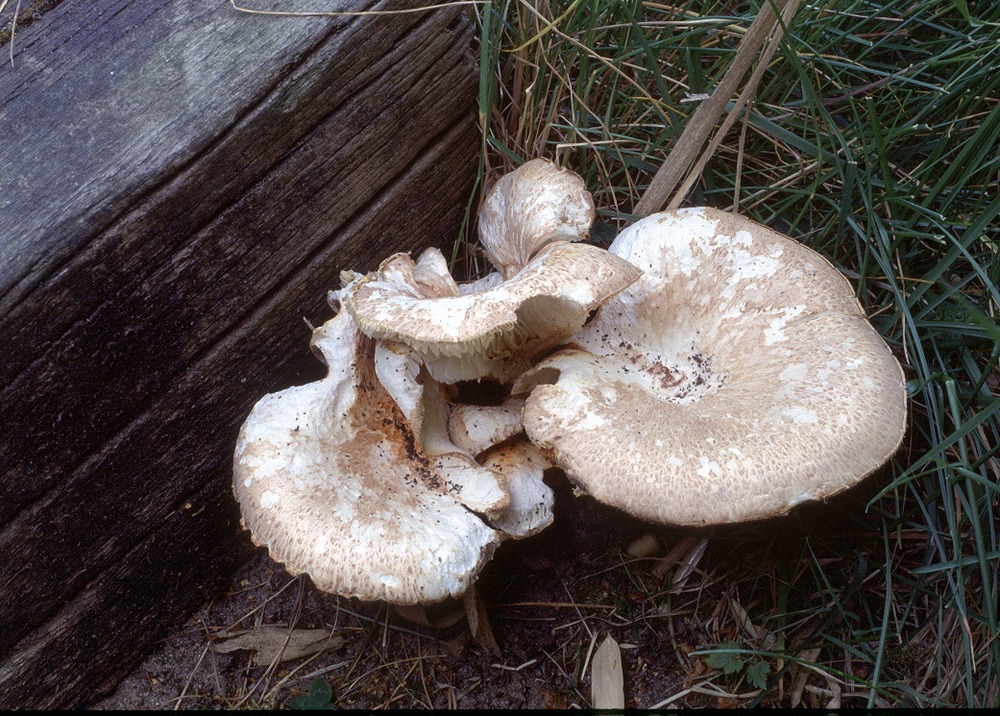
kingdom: Fungi
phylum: Basidiomycota
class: Agaricomycetes
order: Gloeophyllales
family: Gloeophyllaceae
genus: Neolentinus
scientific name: Neolentinus lepideus
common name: skællet sejhat
